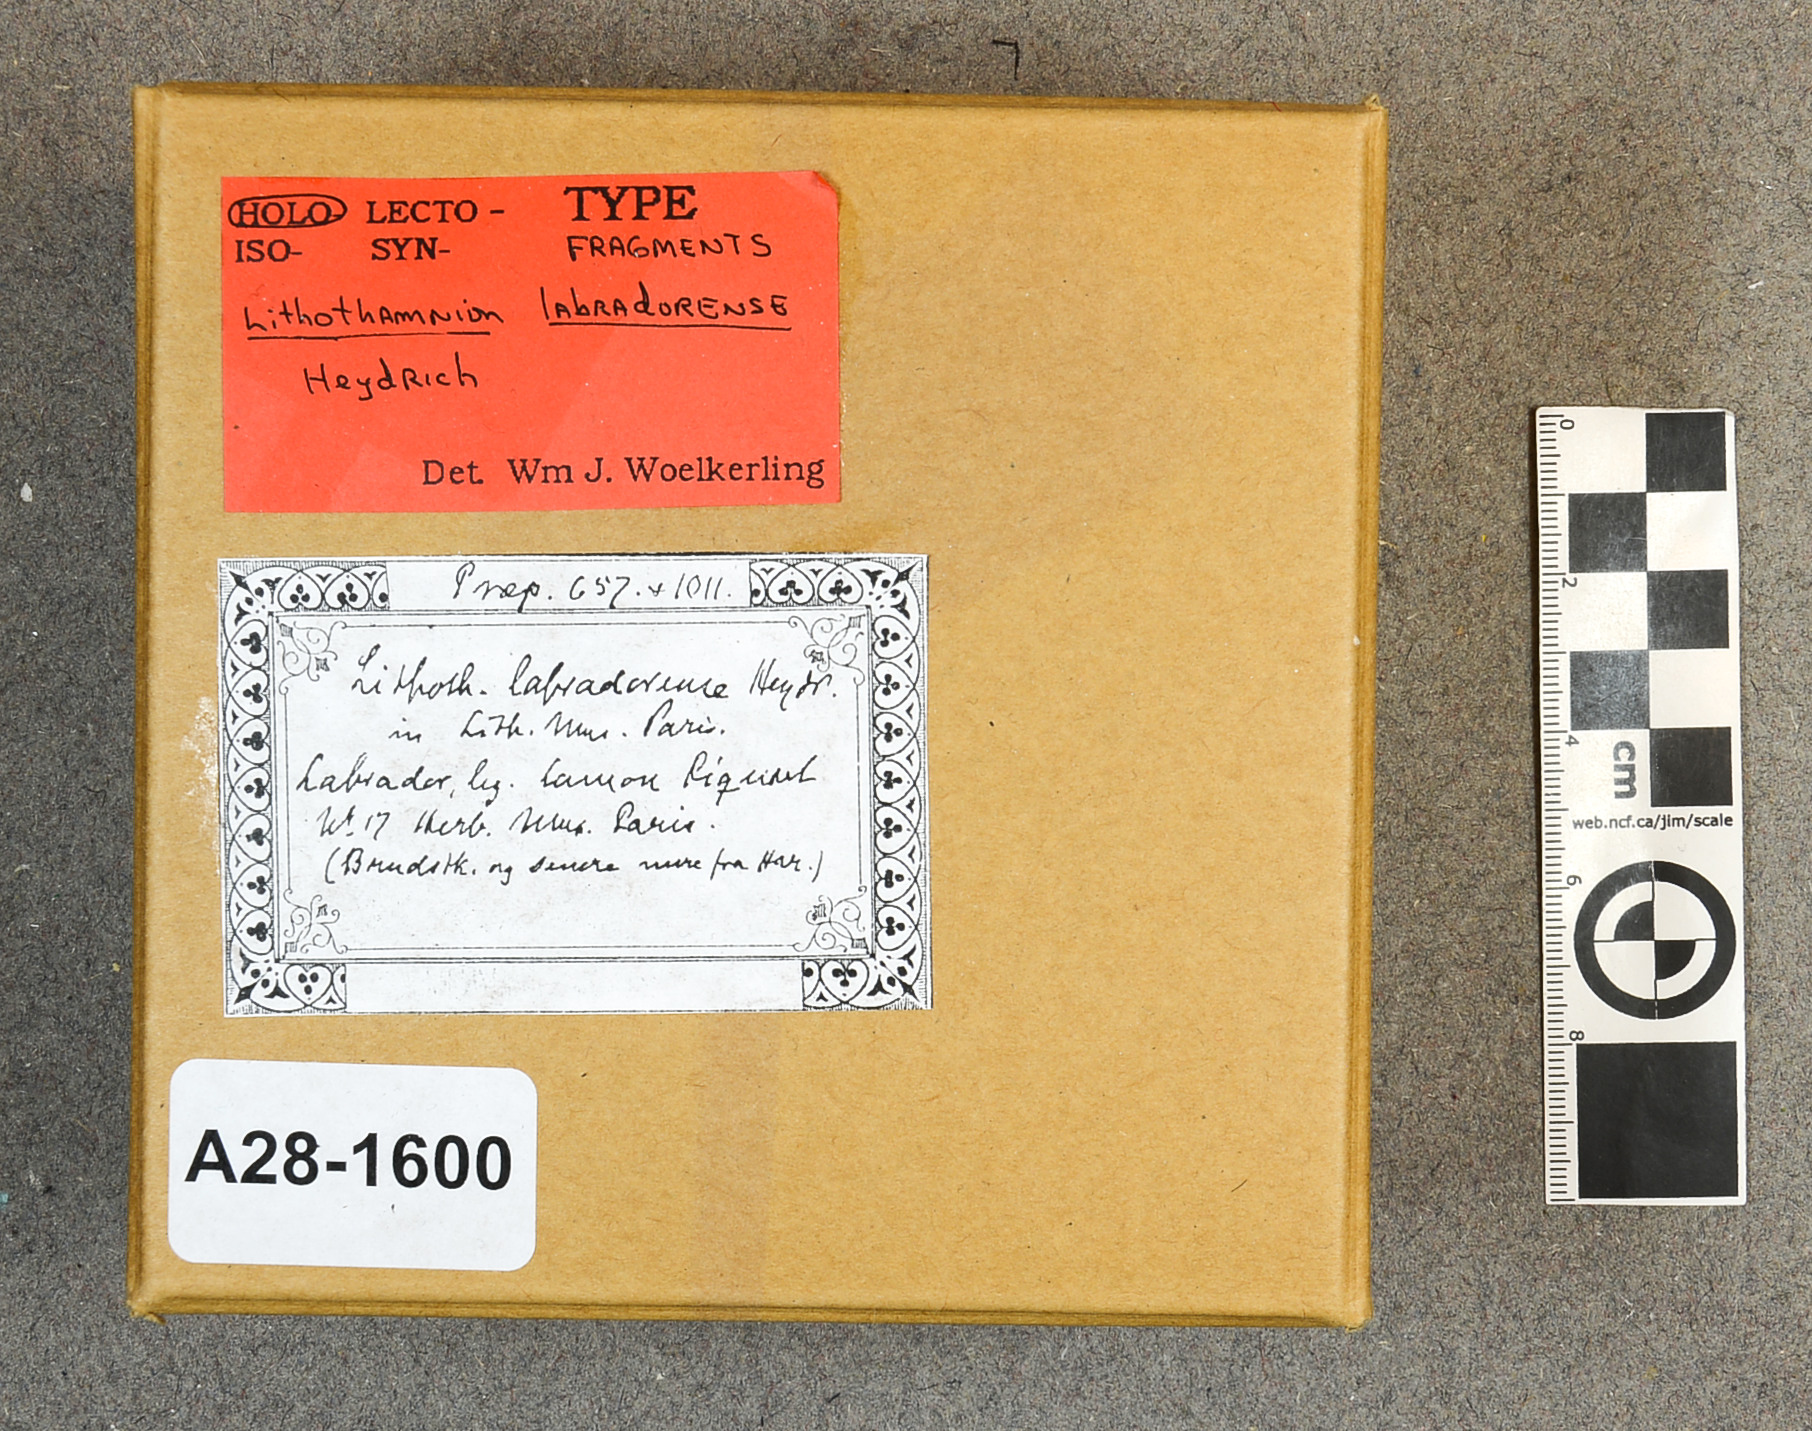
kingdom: Plantae
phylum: Rhodophyta
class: Florideophyceae
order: Corallinales
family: Hapalidiaceae
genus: Lithothamnion
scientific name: Lithothamnion labradorense
